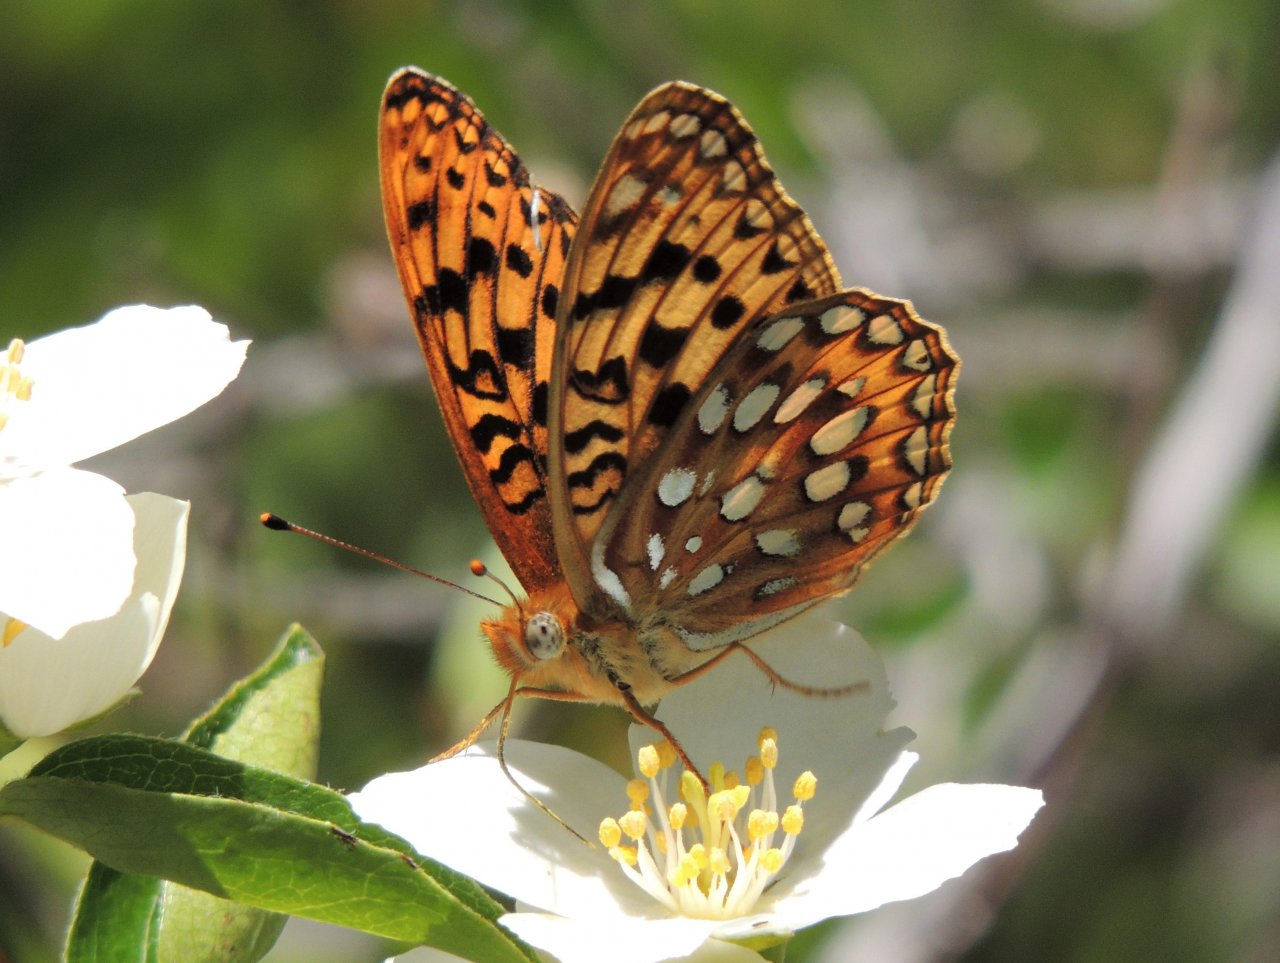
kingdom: Animalia
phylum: Arthropoda
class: Insecta
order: Lepidoptera
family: Nymphalidae
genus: Speyeria
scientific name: Speyeria zerene
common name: Zerene Fritillary
